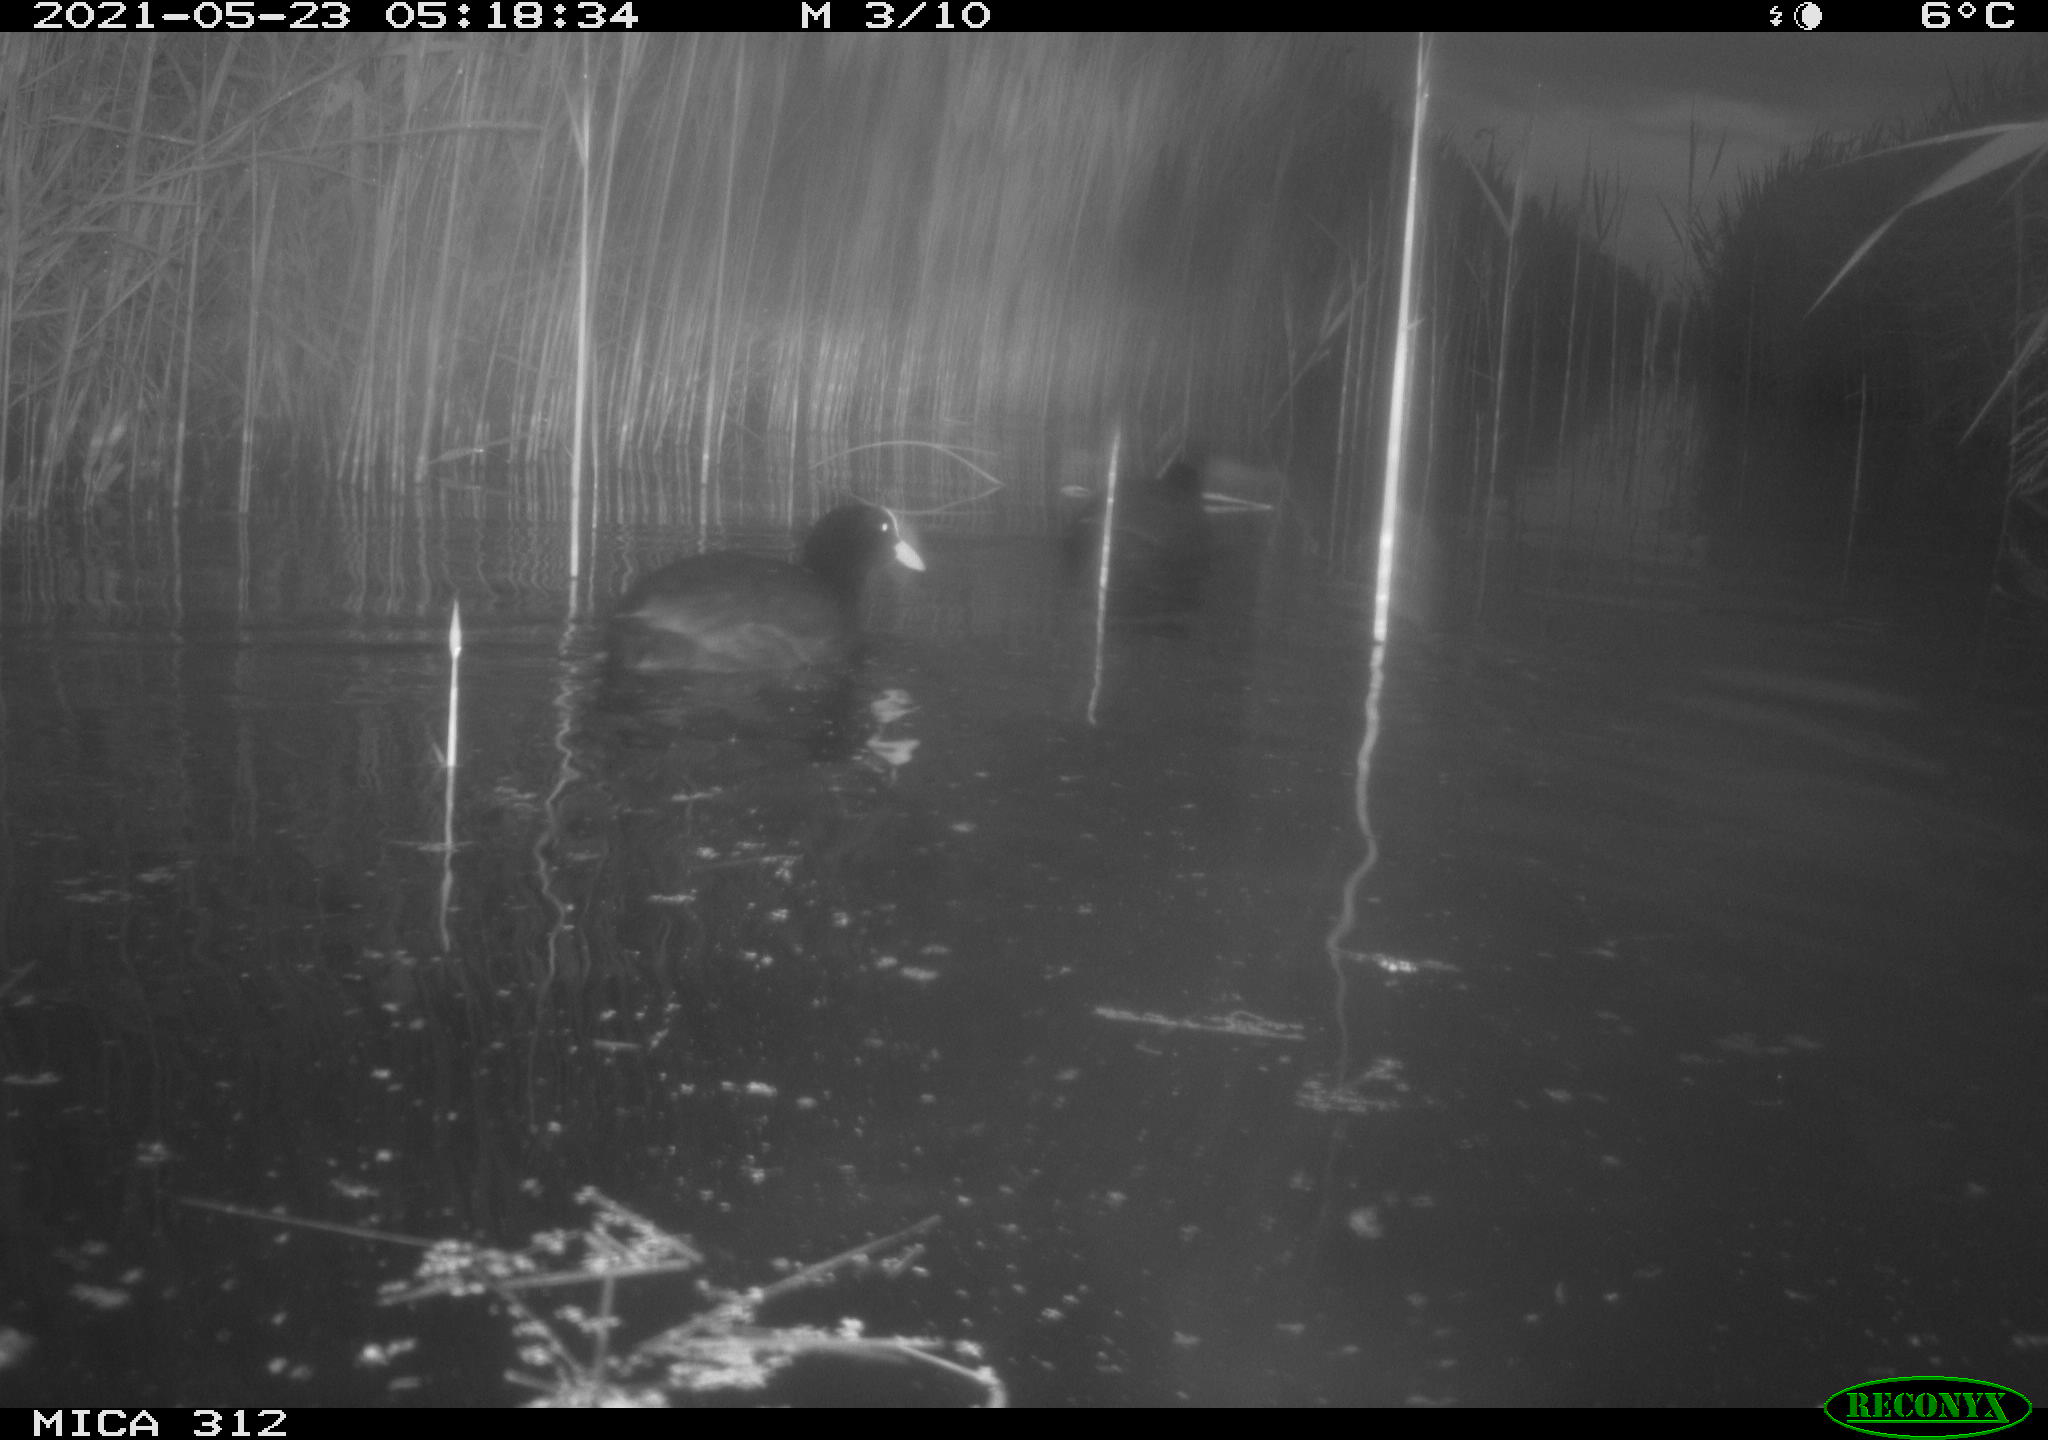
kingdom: Animalia
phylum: Chordata
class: Aves
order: Gruiformes
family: Rallidae
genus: Fulica
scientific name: Fulica atra
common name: Eurasian coot
